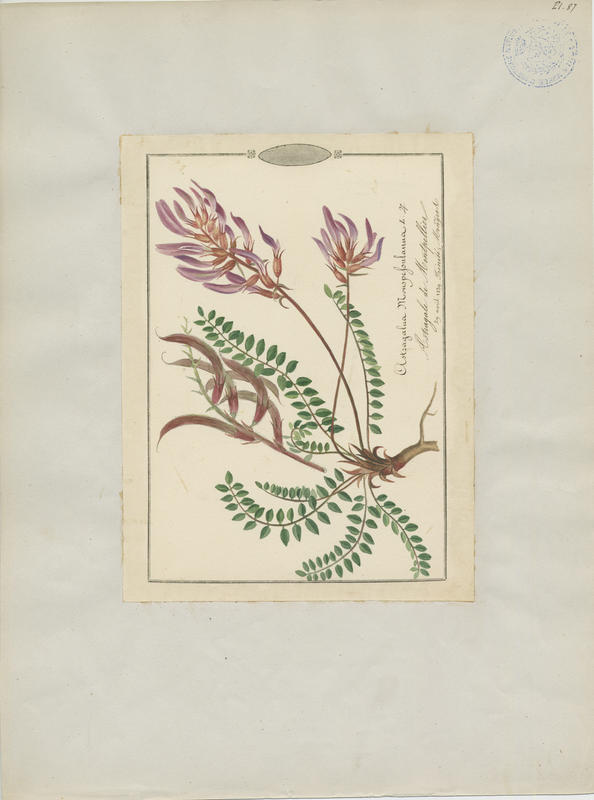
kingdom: Plantae
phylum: Tracheophyta
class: Magnoliopsida
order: Fabales
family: Fabaceae
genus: Astragalus
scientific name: Astragalus monspessulanus
